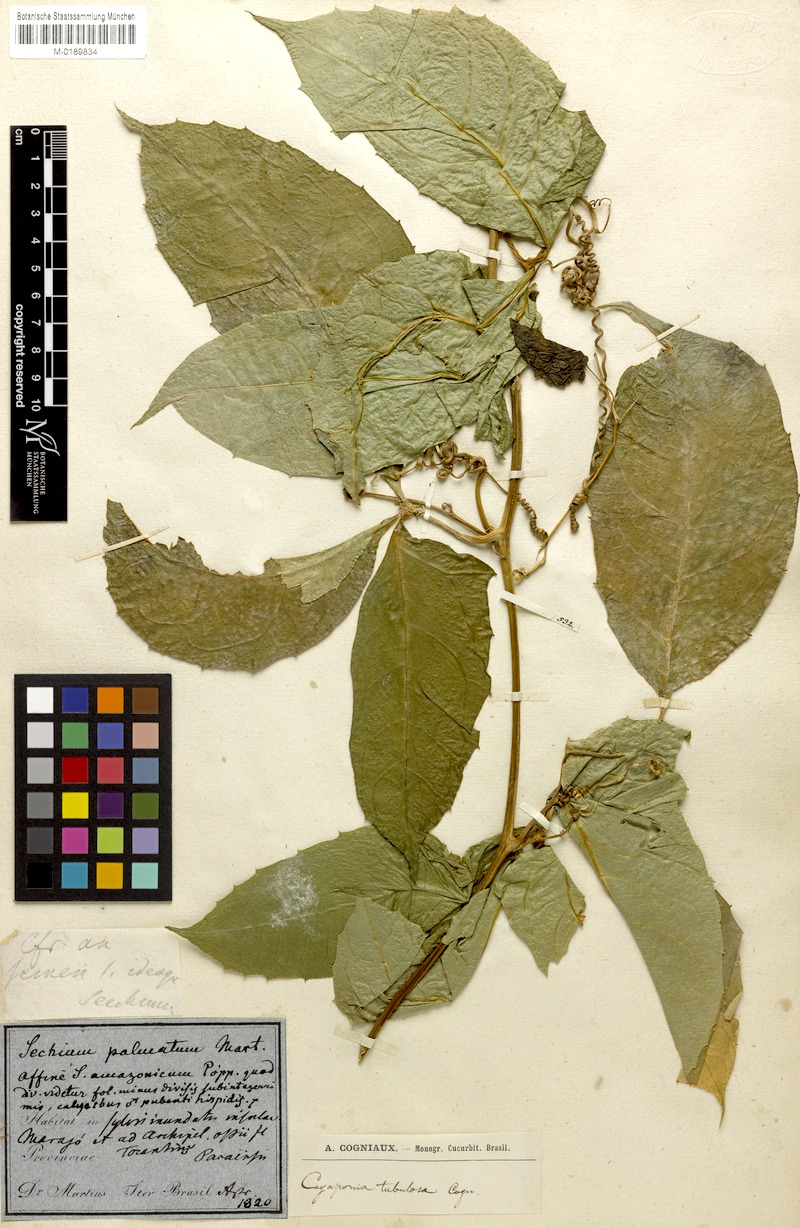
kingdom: Plantae
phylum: Tracheophyta
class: Magnoliopsida
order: Cucurbitales
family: Cucurbitaceae
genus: Cayaponia
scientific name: Cayaponia tubulosa
